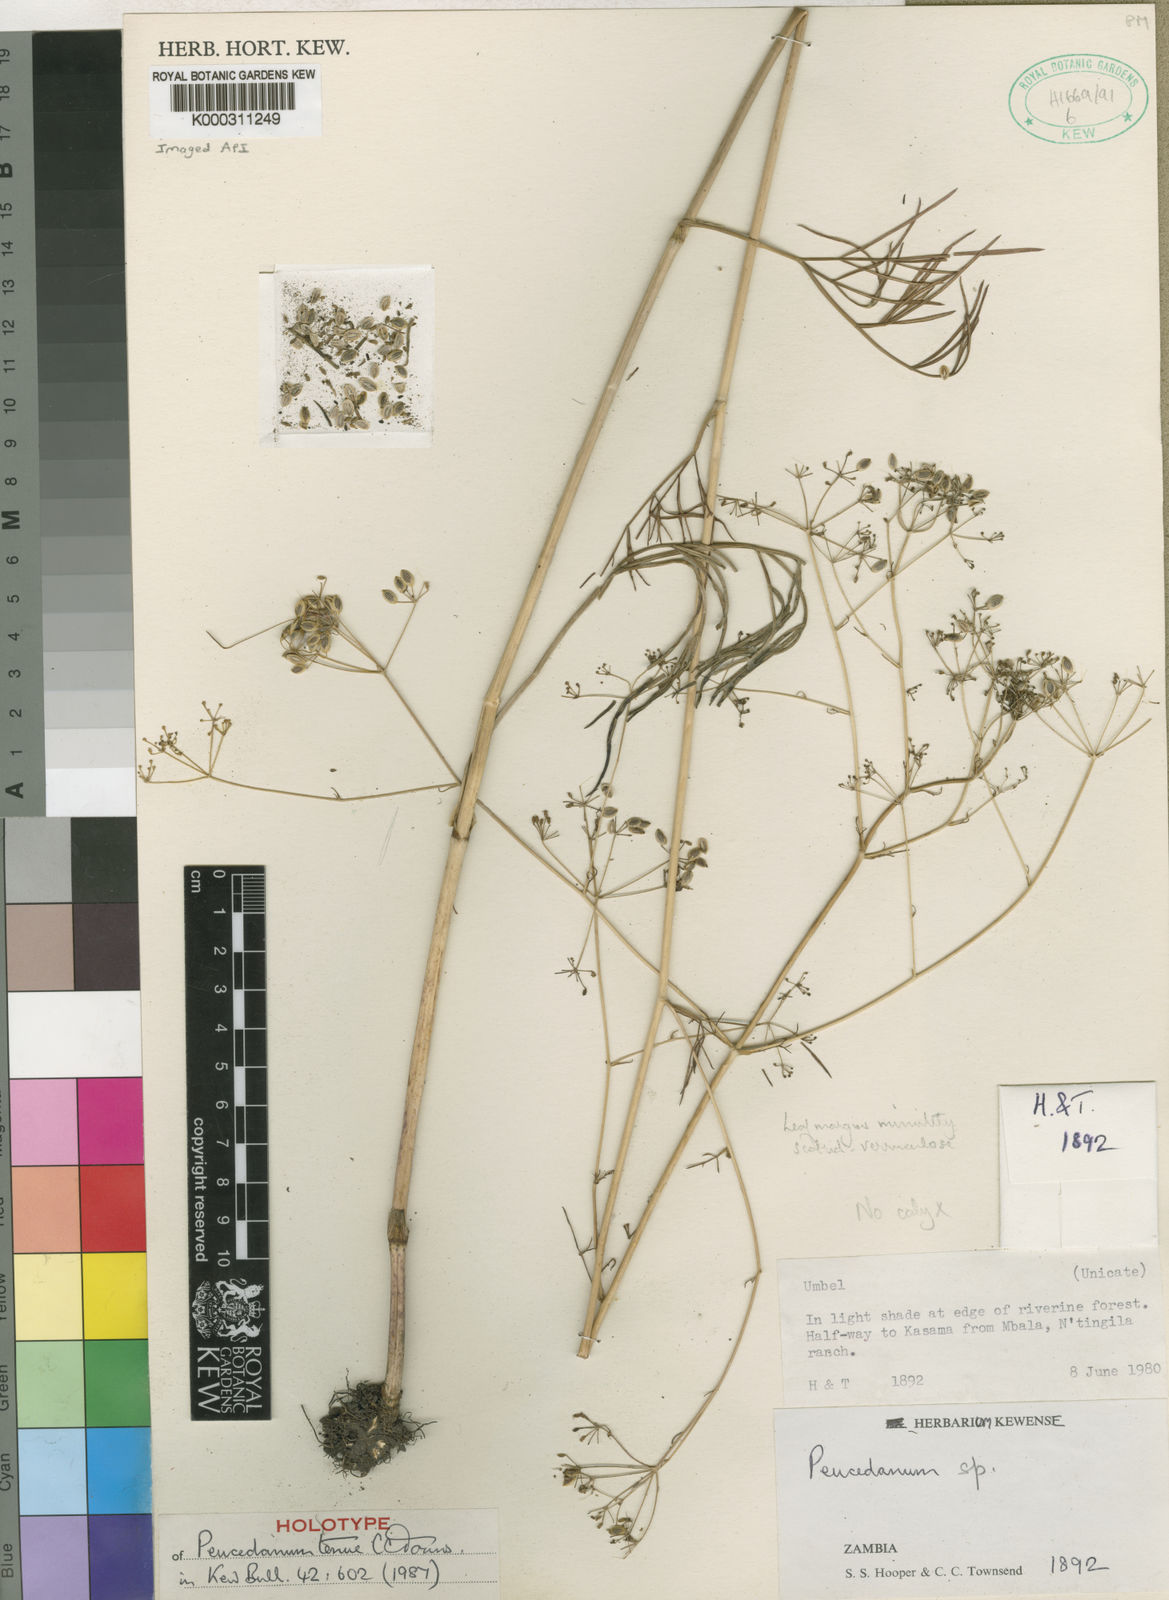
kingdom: Plantae
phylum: Tracheophyta
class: Magnoliopsida
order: Apiales
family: Apiaceae
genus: Lefebvrea
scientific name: Lefebvrea tenuis
